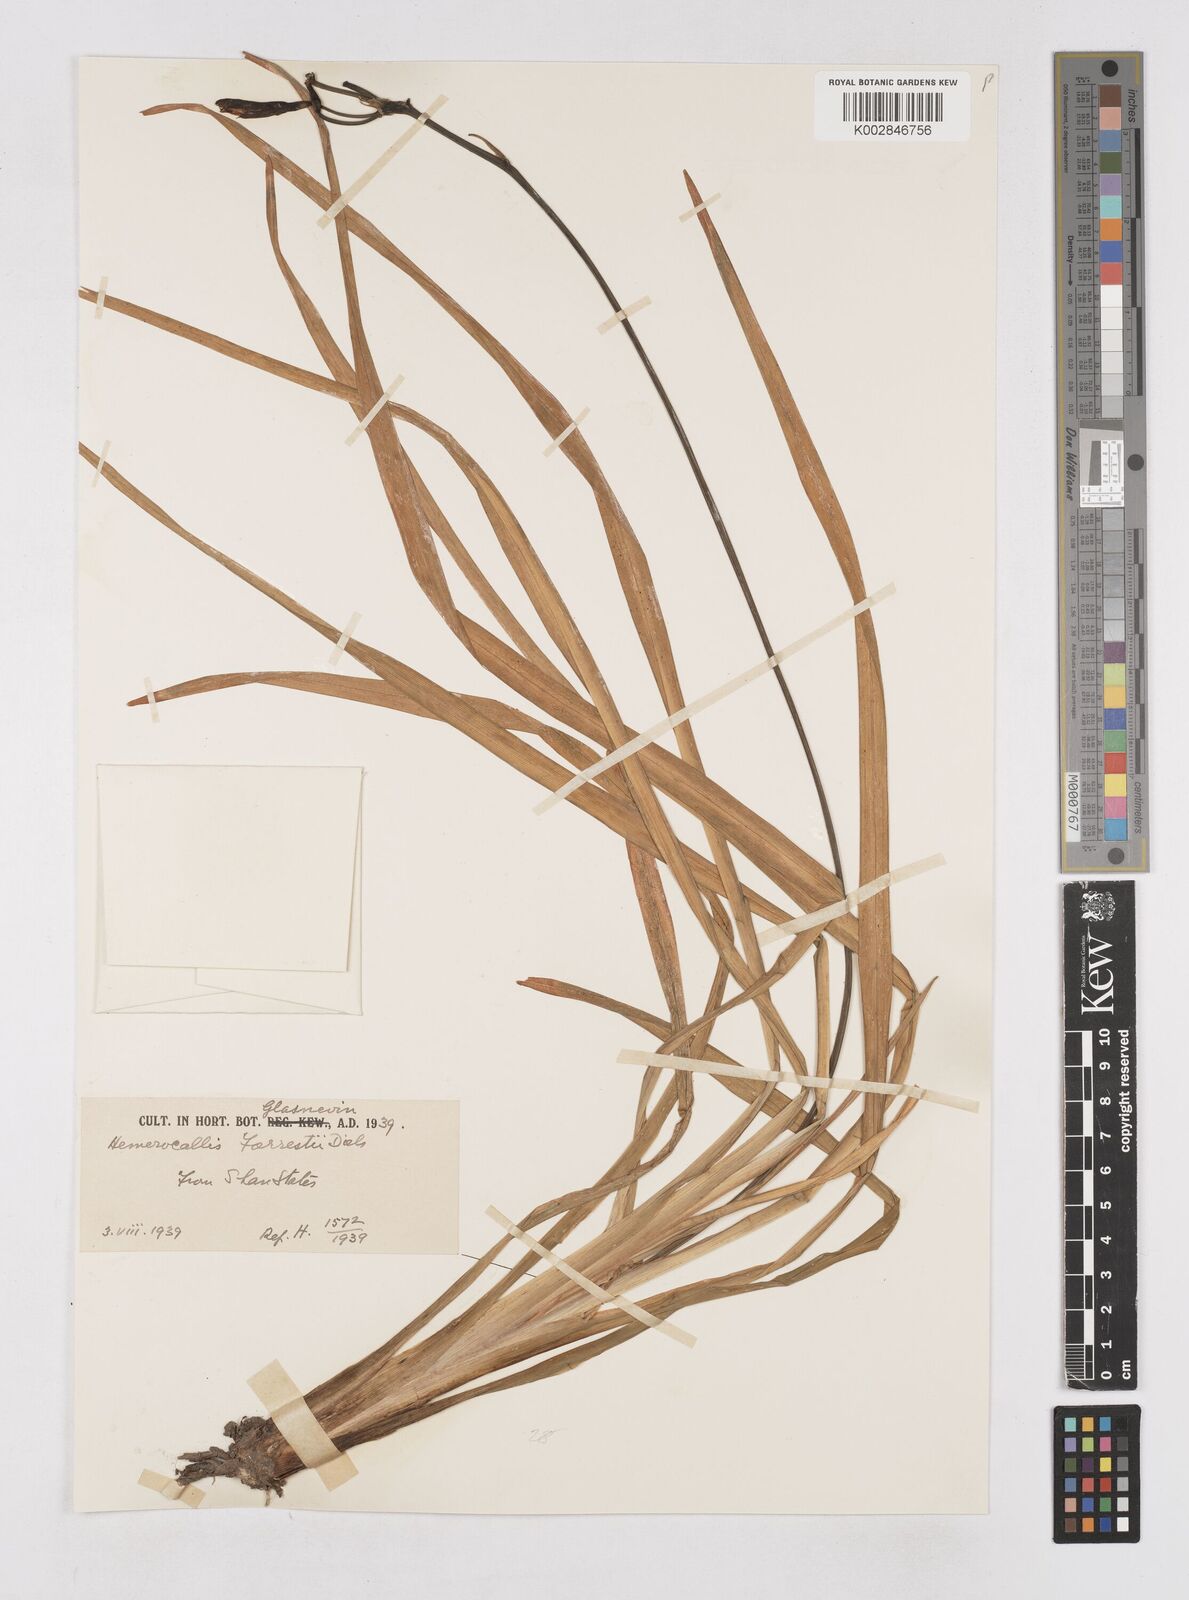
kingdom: Plantae
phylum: Tracheophyta
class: Liliopsida
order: Asparagales
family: Asphodelaceae
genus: Hemerocallis
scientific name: Hemerocallis forrestii
